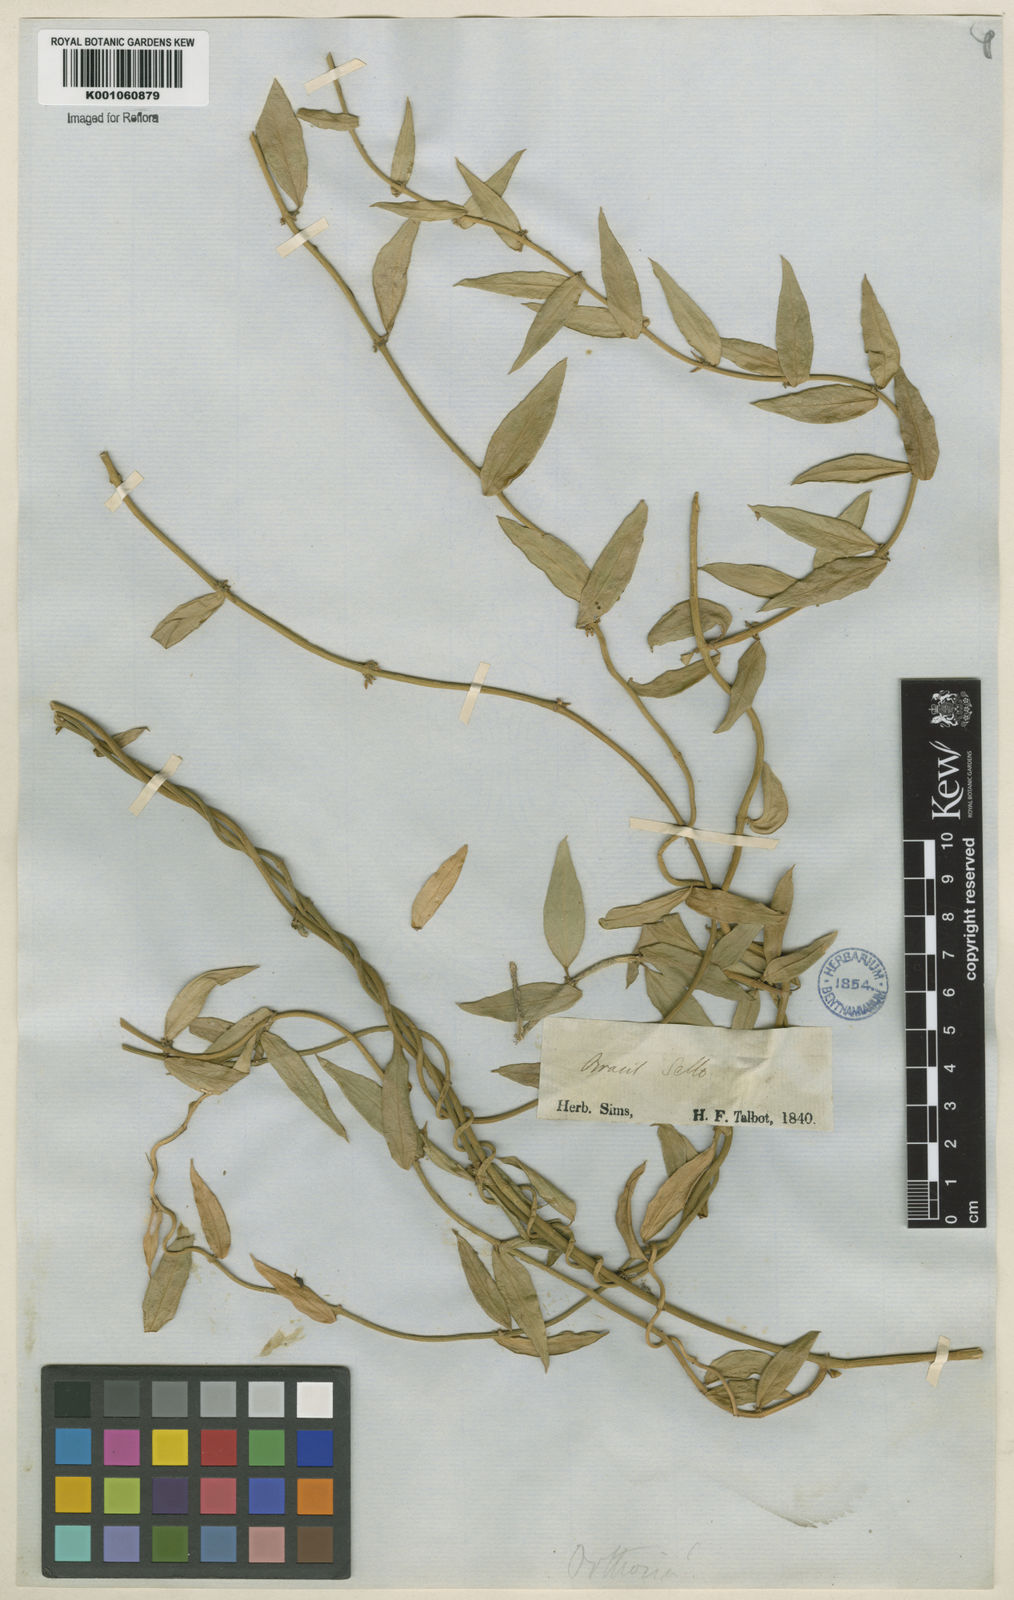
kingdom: Plantae
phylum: Tracheophyta
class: Magnoliopsida
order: Gentianales
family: Apocynaceae
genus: Orthosia
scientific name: Orthosia arenosa
